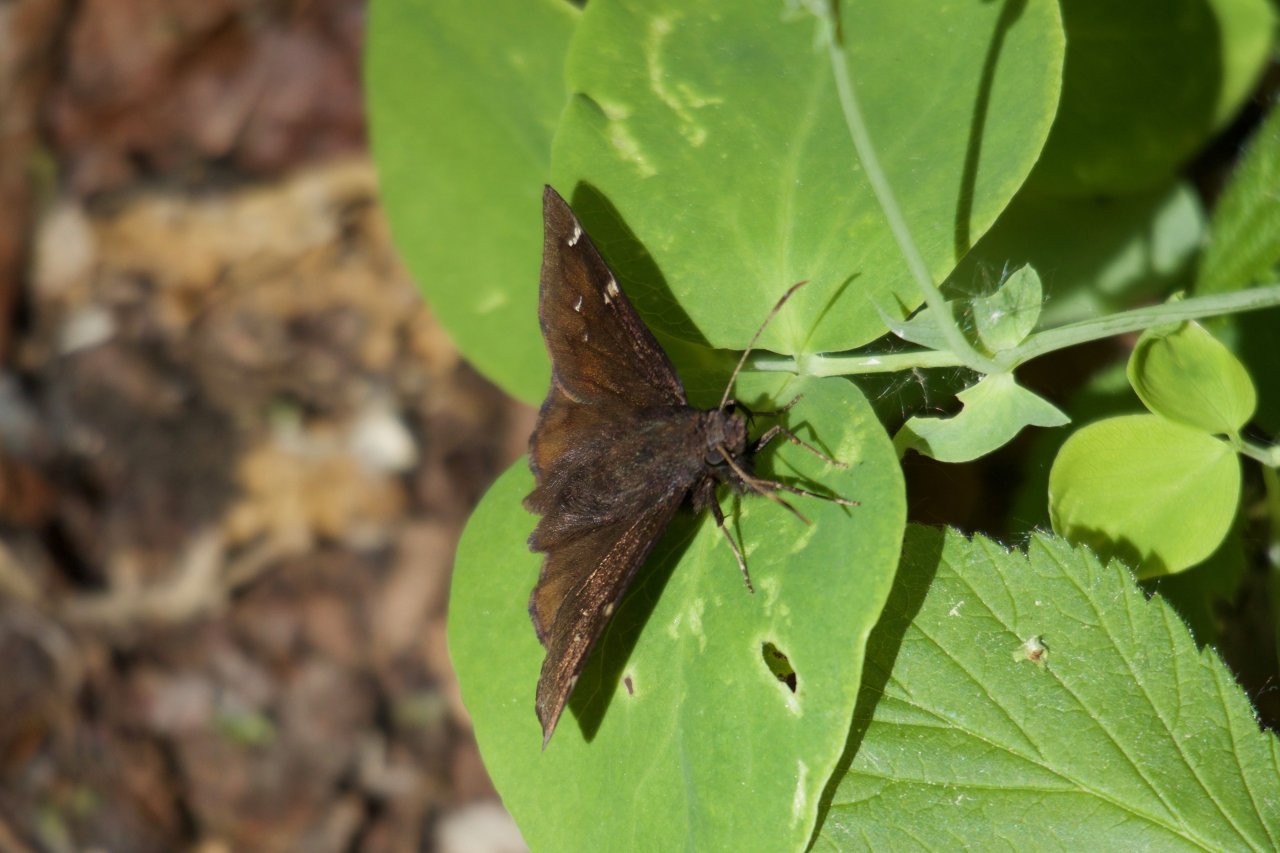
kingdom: Animalia
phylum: Arthropoda
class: Insecta
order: Lepidoptera
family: Hesperiidae
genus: Autochton
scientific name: Autochton
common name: Northern Cloudywing
